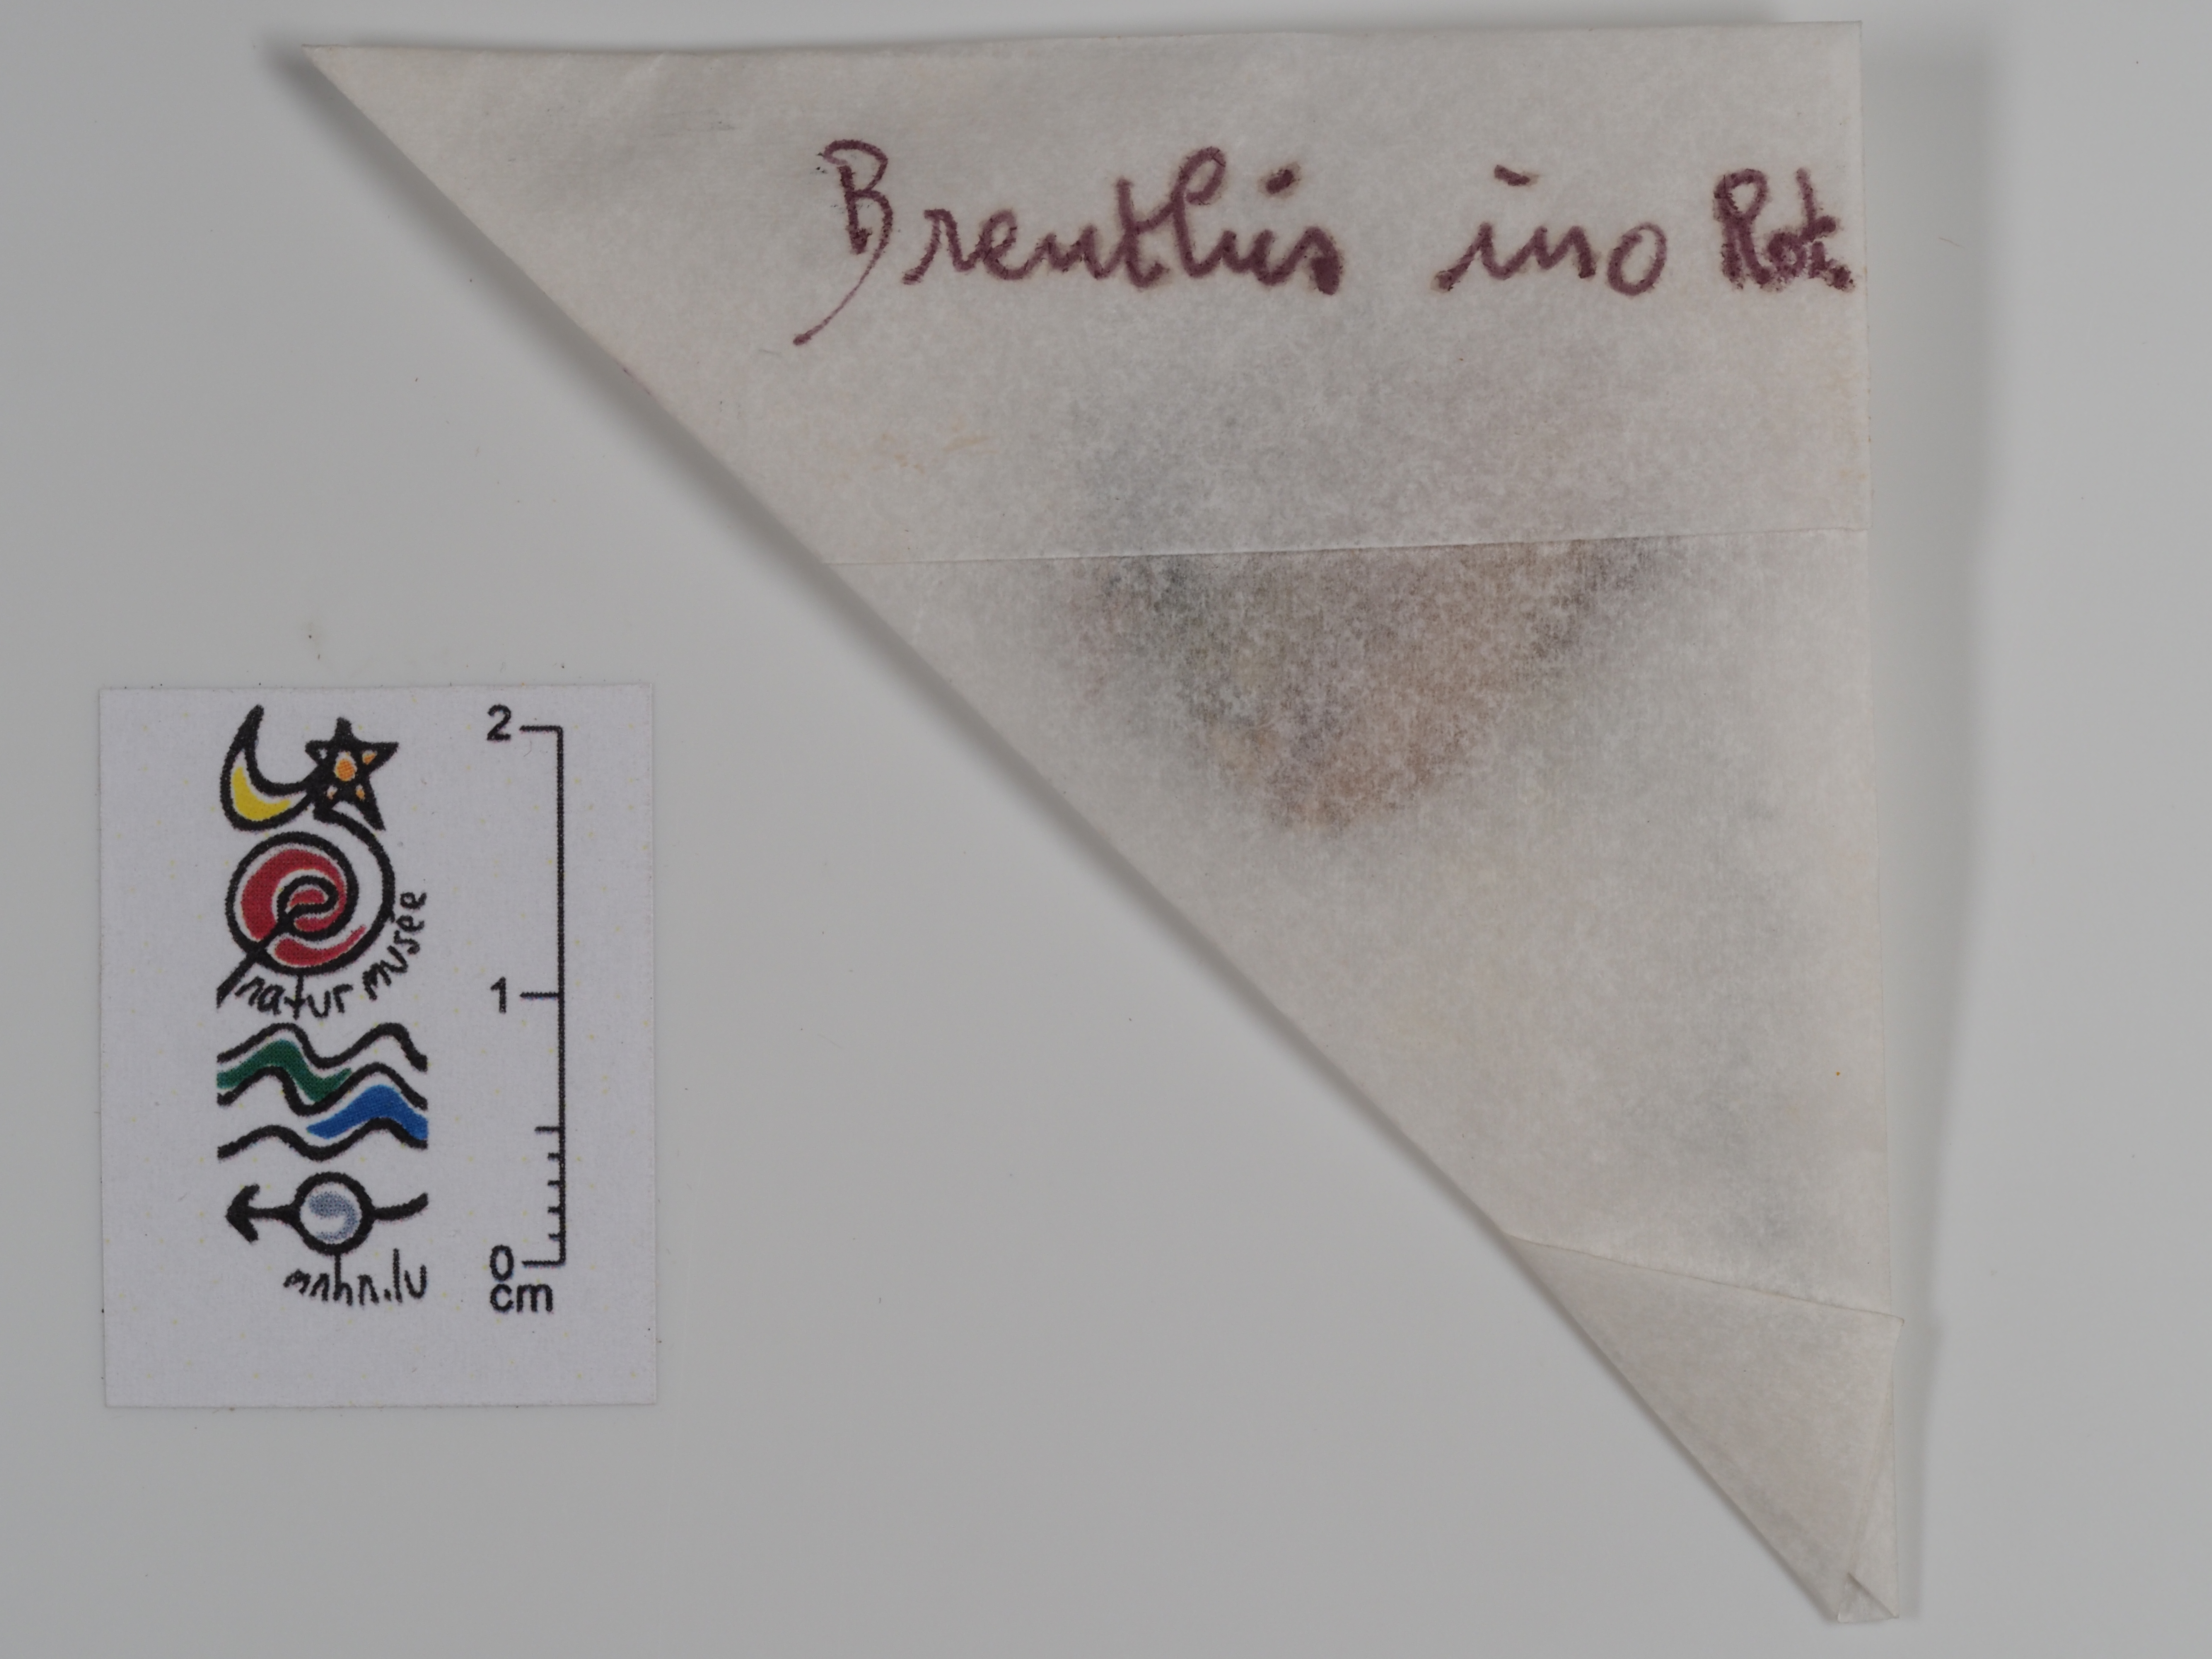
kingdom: Animalia
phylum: Arthropoda
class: Insecta
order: Lepidoptera
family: Nymphalidae
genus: Brenthis
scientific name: Brenthis ino
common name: Lesser marbled fritillary
